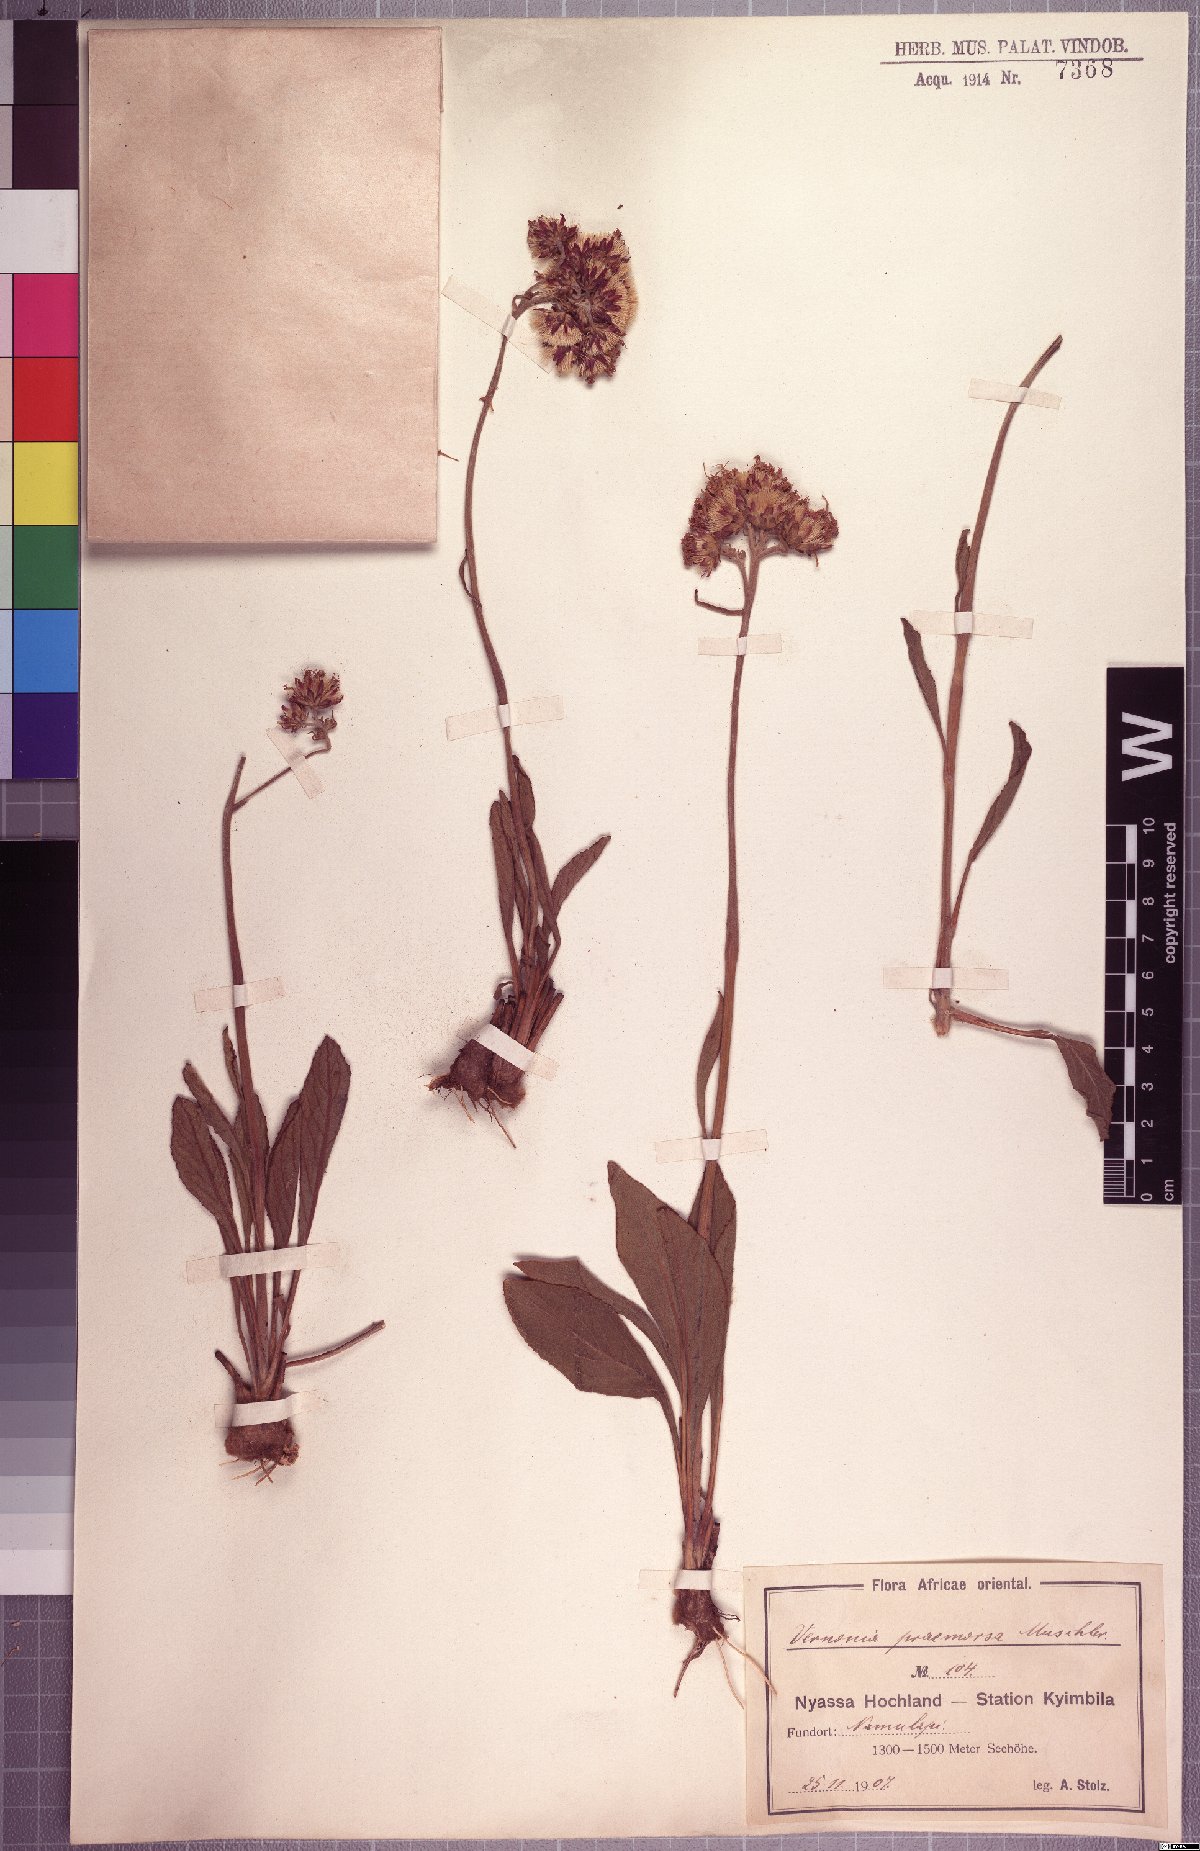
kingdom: Plantae
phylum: Tracheophyta
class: Magnoliopsida
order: Asterales
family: Asteraceae
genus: Vernonella
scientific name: Vernonella praemorsa
